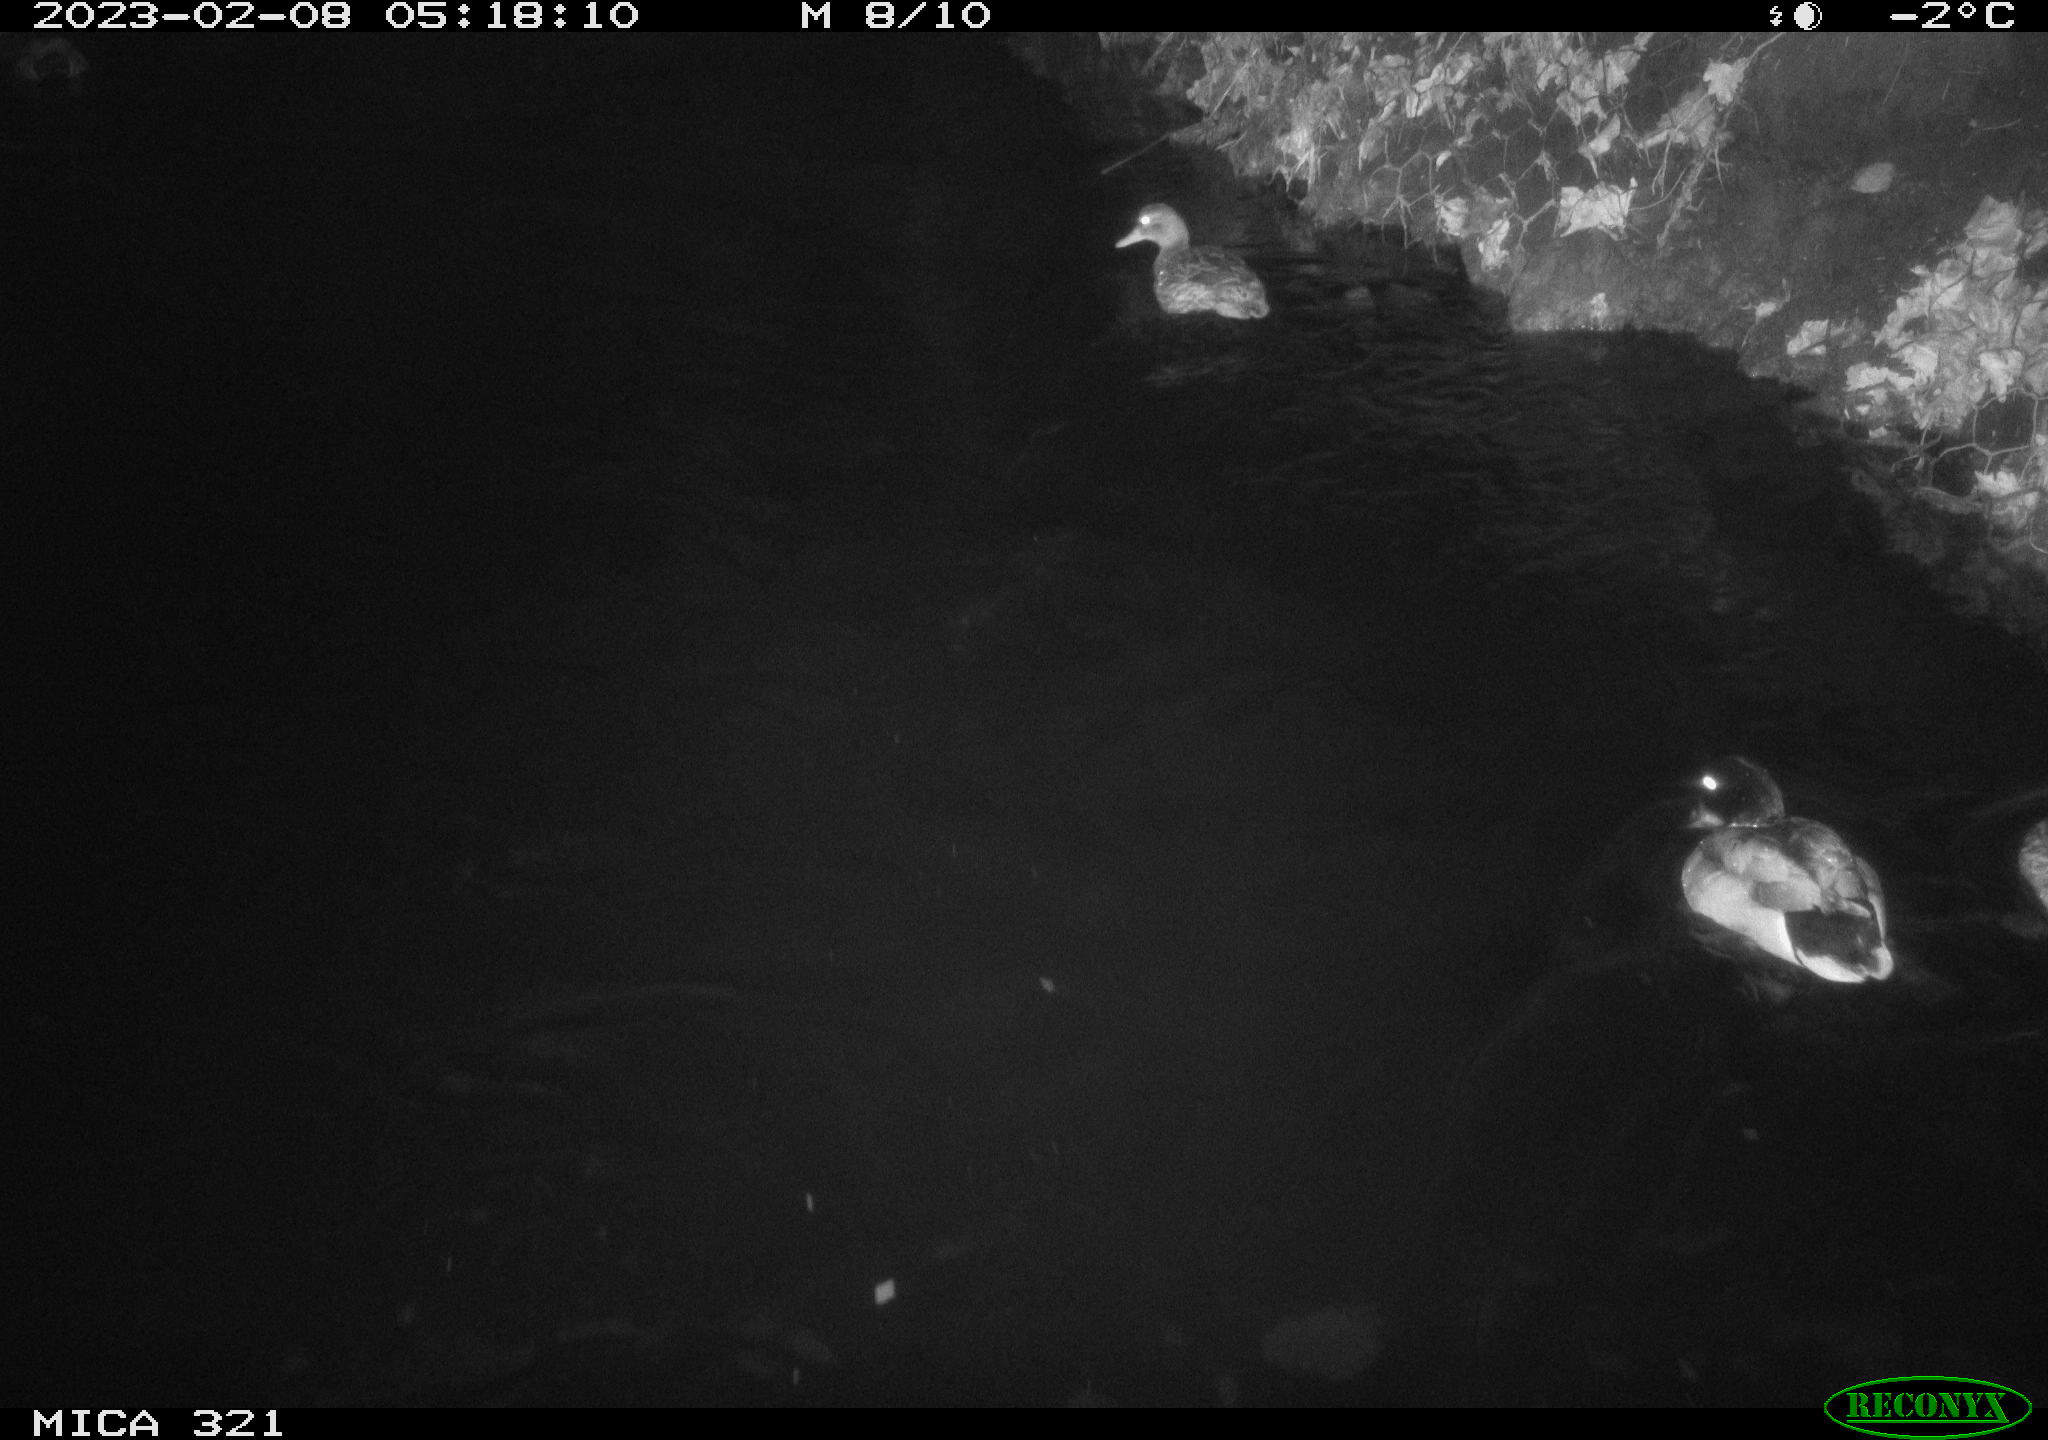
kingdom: Animalia
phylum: Chordata
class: Aves
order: Anseriformes
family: Anatidae
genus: Anas
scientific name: Anas
